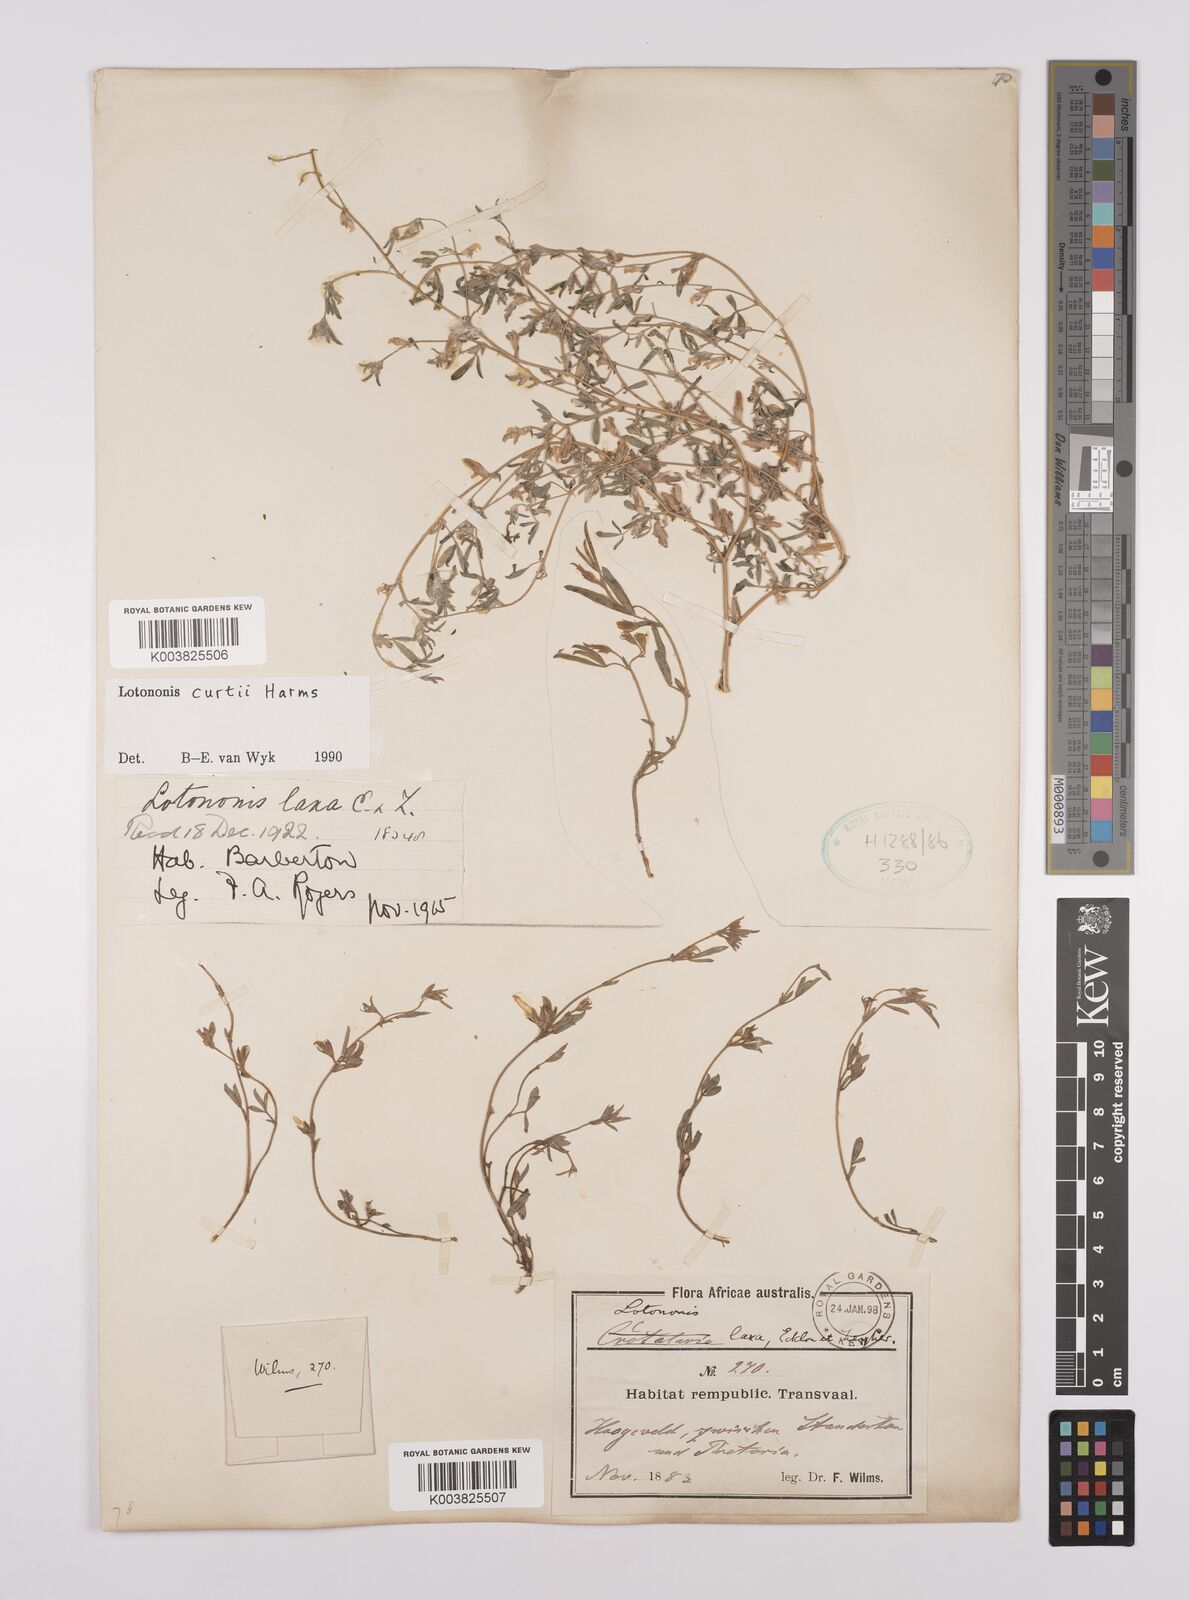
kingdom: Plantae
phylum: Tracheophyta
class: Magnoliopsida
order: Fabales
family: Fabaceae
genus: Lotononis
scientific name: Lotononis curtii
